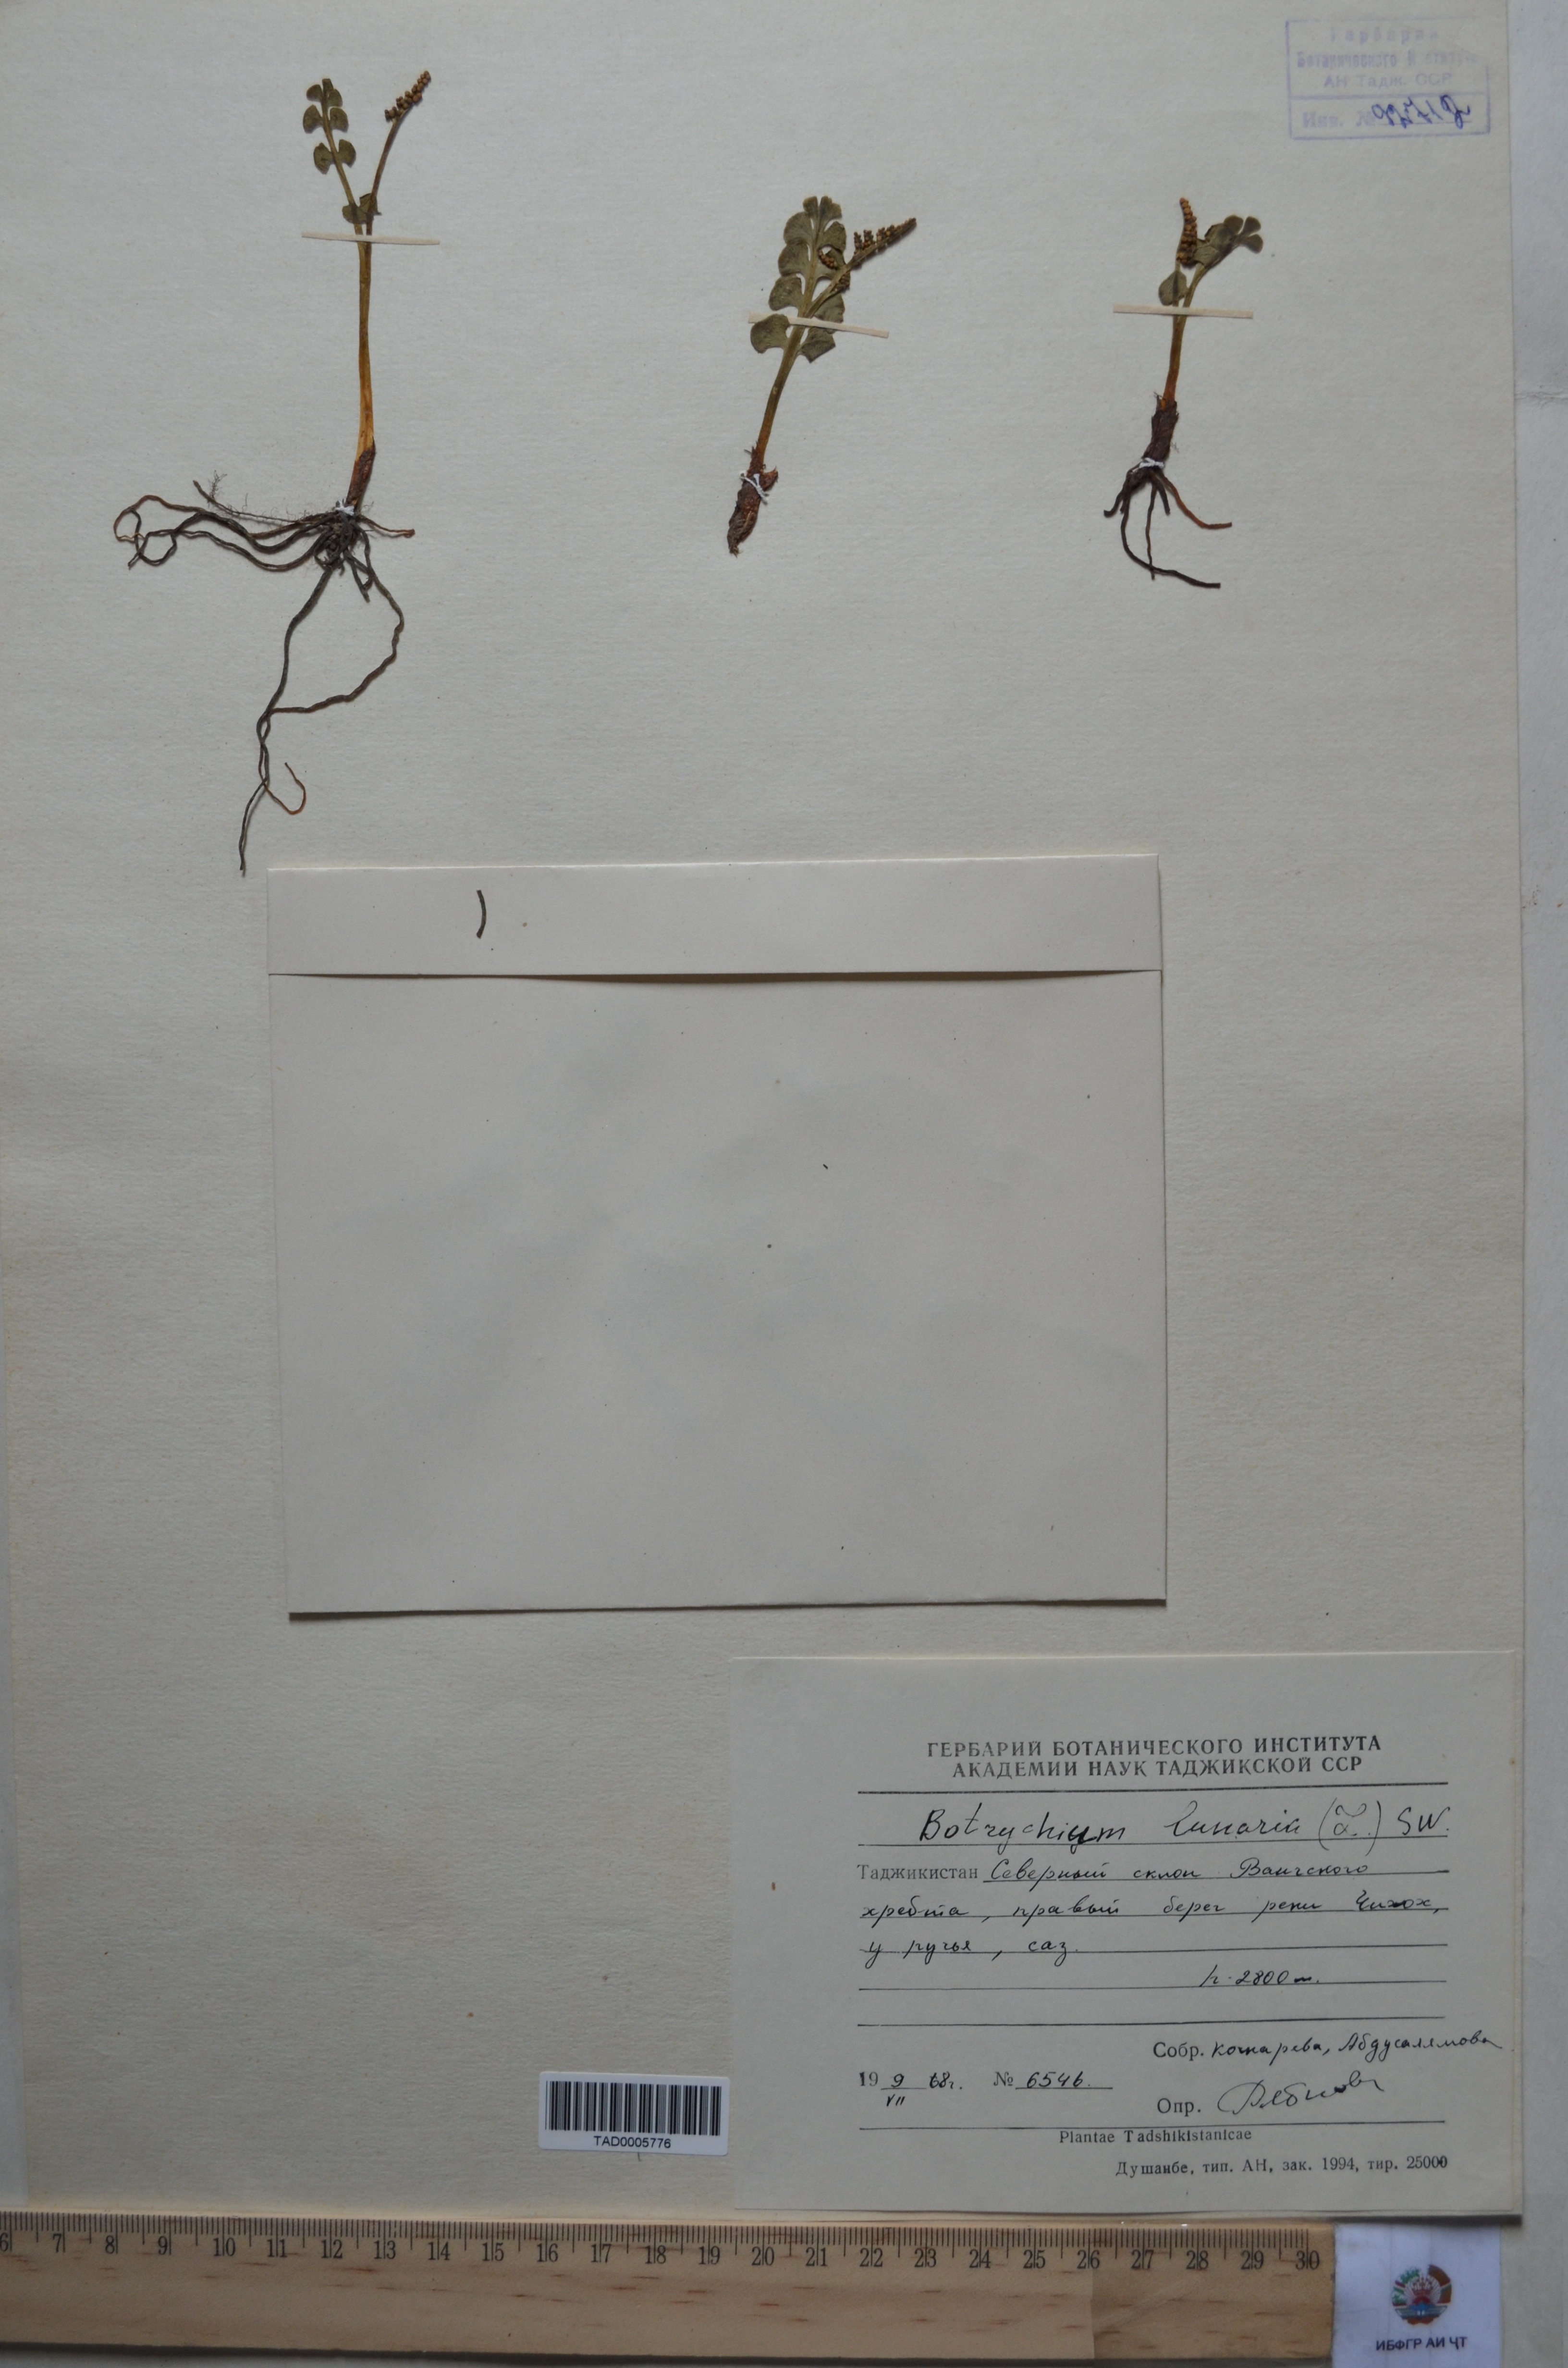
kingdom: Plantae
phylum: Tracheophyta
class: Polypodiopsida
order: Ophioglossales
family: Ophioglossaceae
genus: Botrychium
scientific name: Botrychium lunaria
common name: Moonwort
